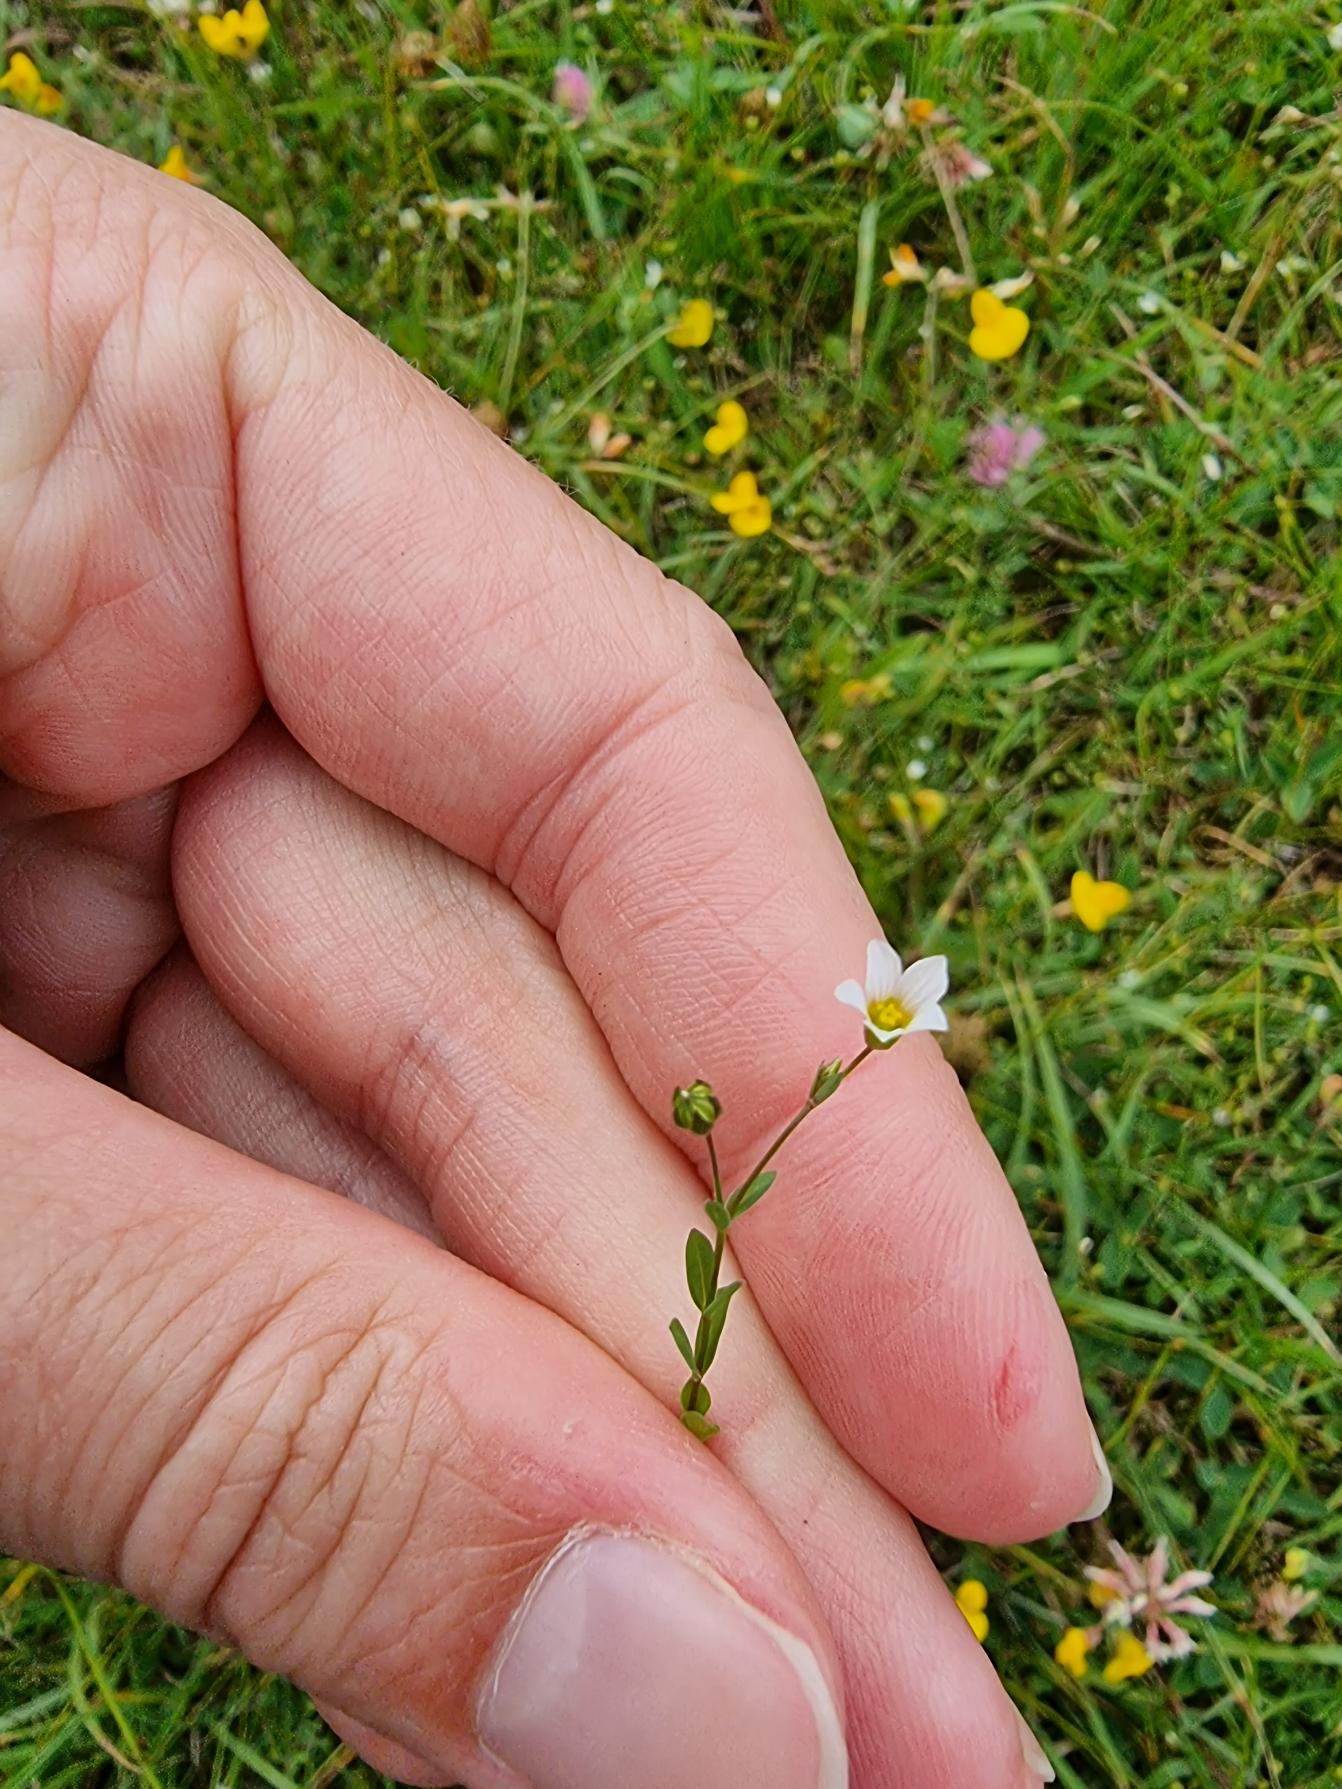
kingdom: Plantae
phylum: Tracheophyta
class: Magnoliopsida
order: Malpighiales
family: Linaceae
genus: Linum
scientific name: Linum catharticum
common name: Vild hør
